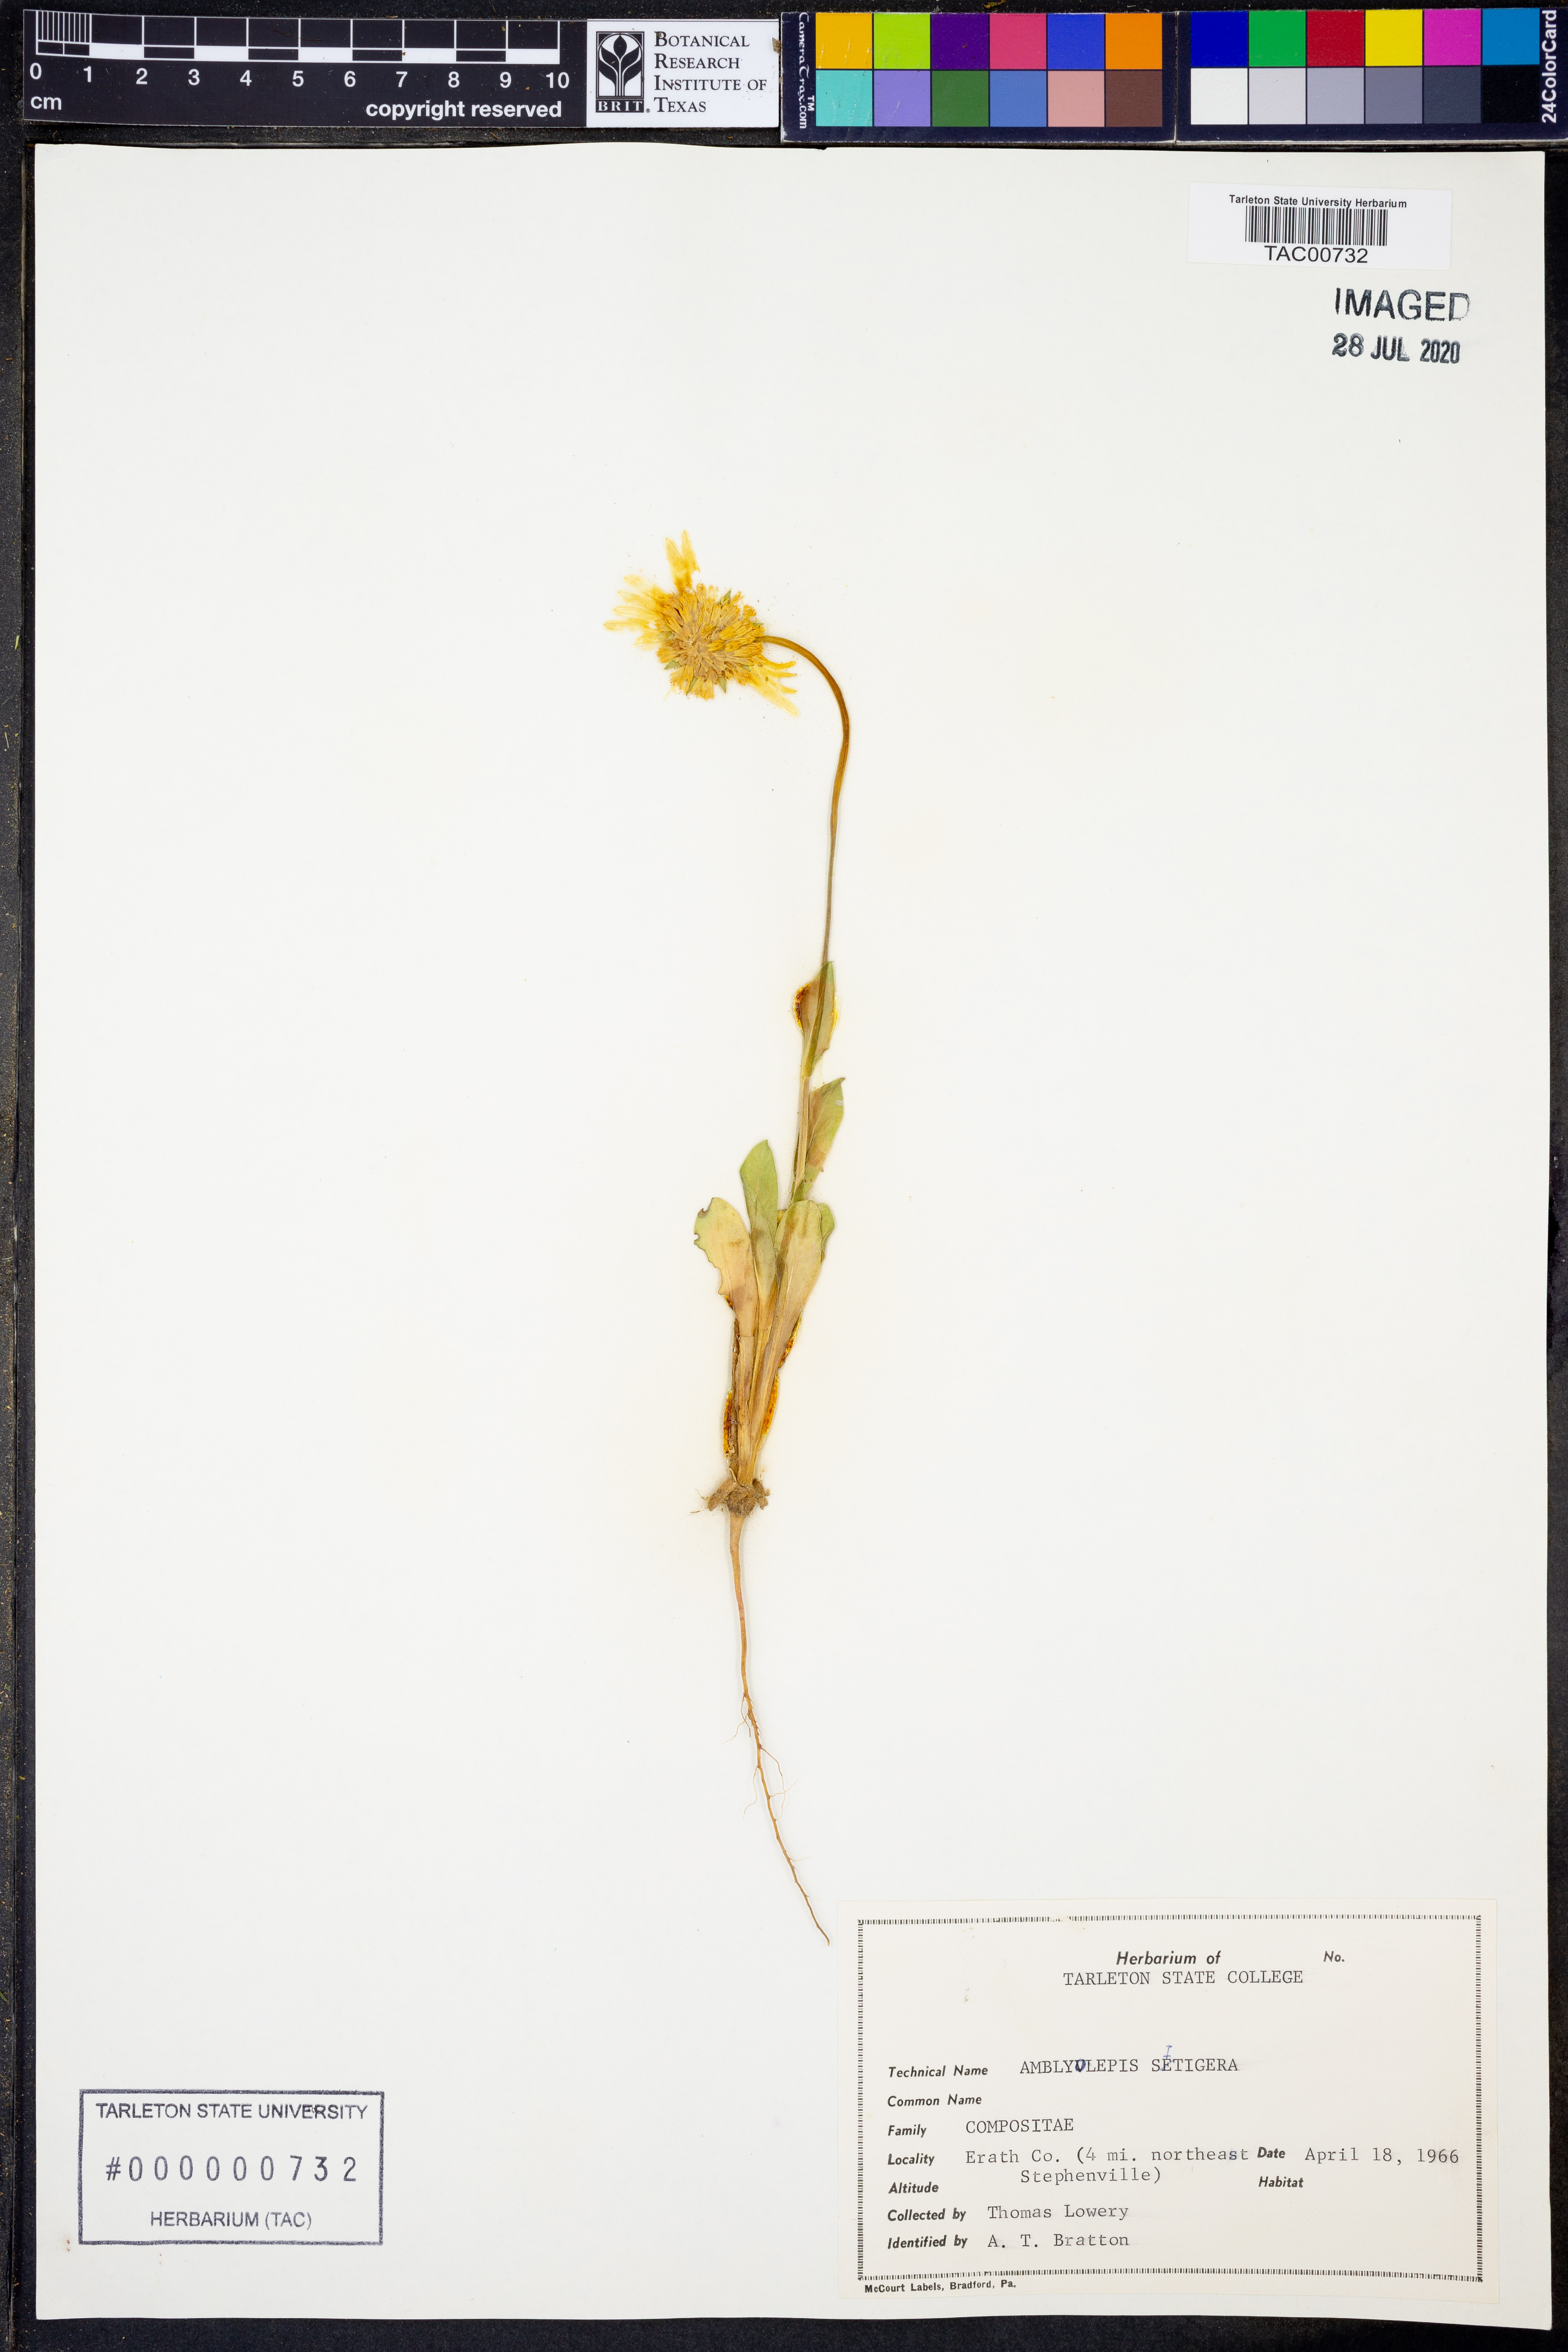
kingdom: Plantae
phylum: Tracheophyta
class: Magnoliopsida
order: Asterales
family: Asteraceae
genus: Amblyolepis
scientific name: Amblyolepis setigera
